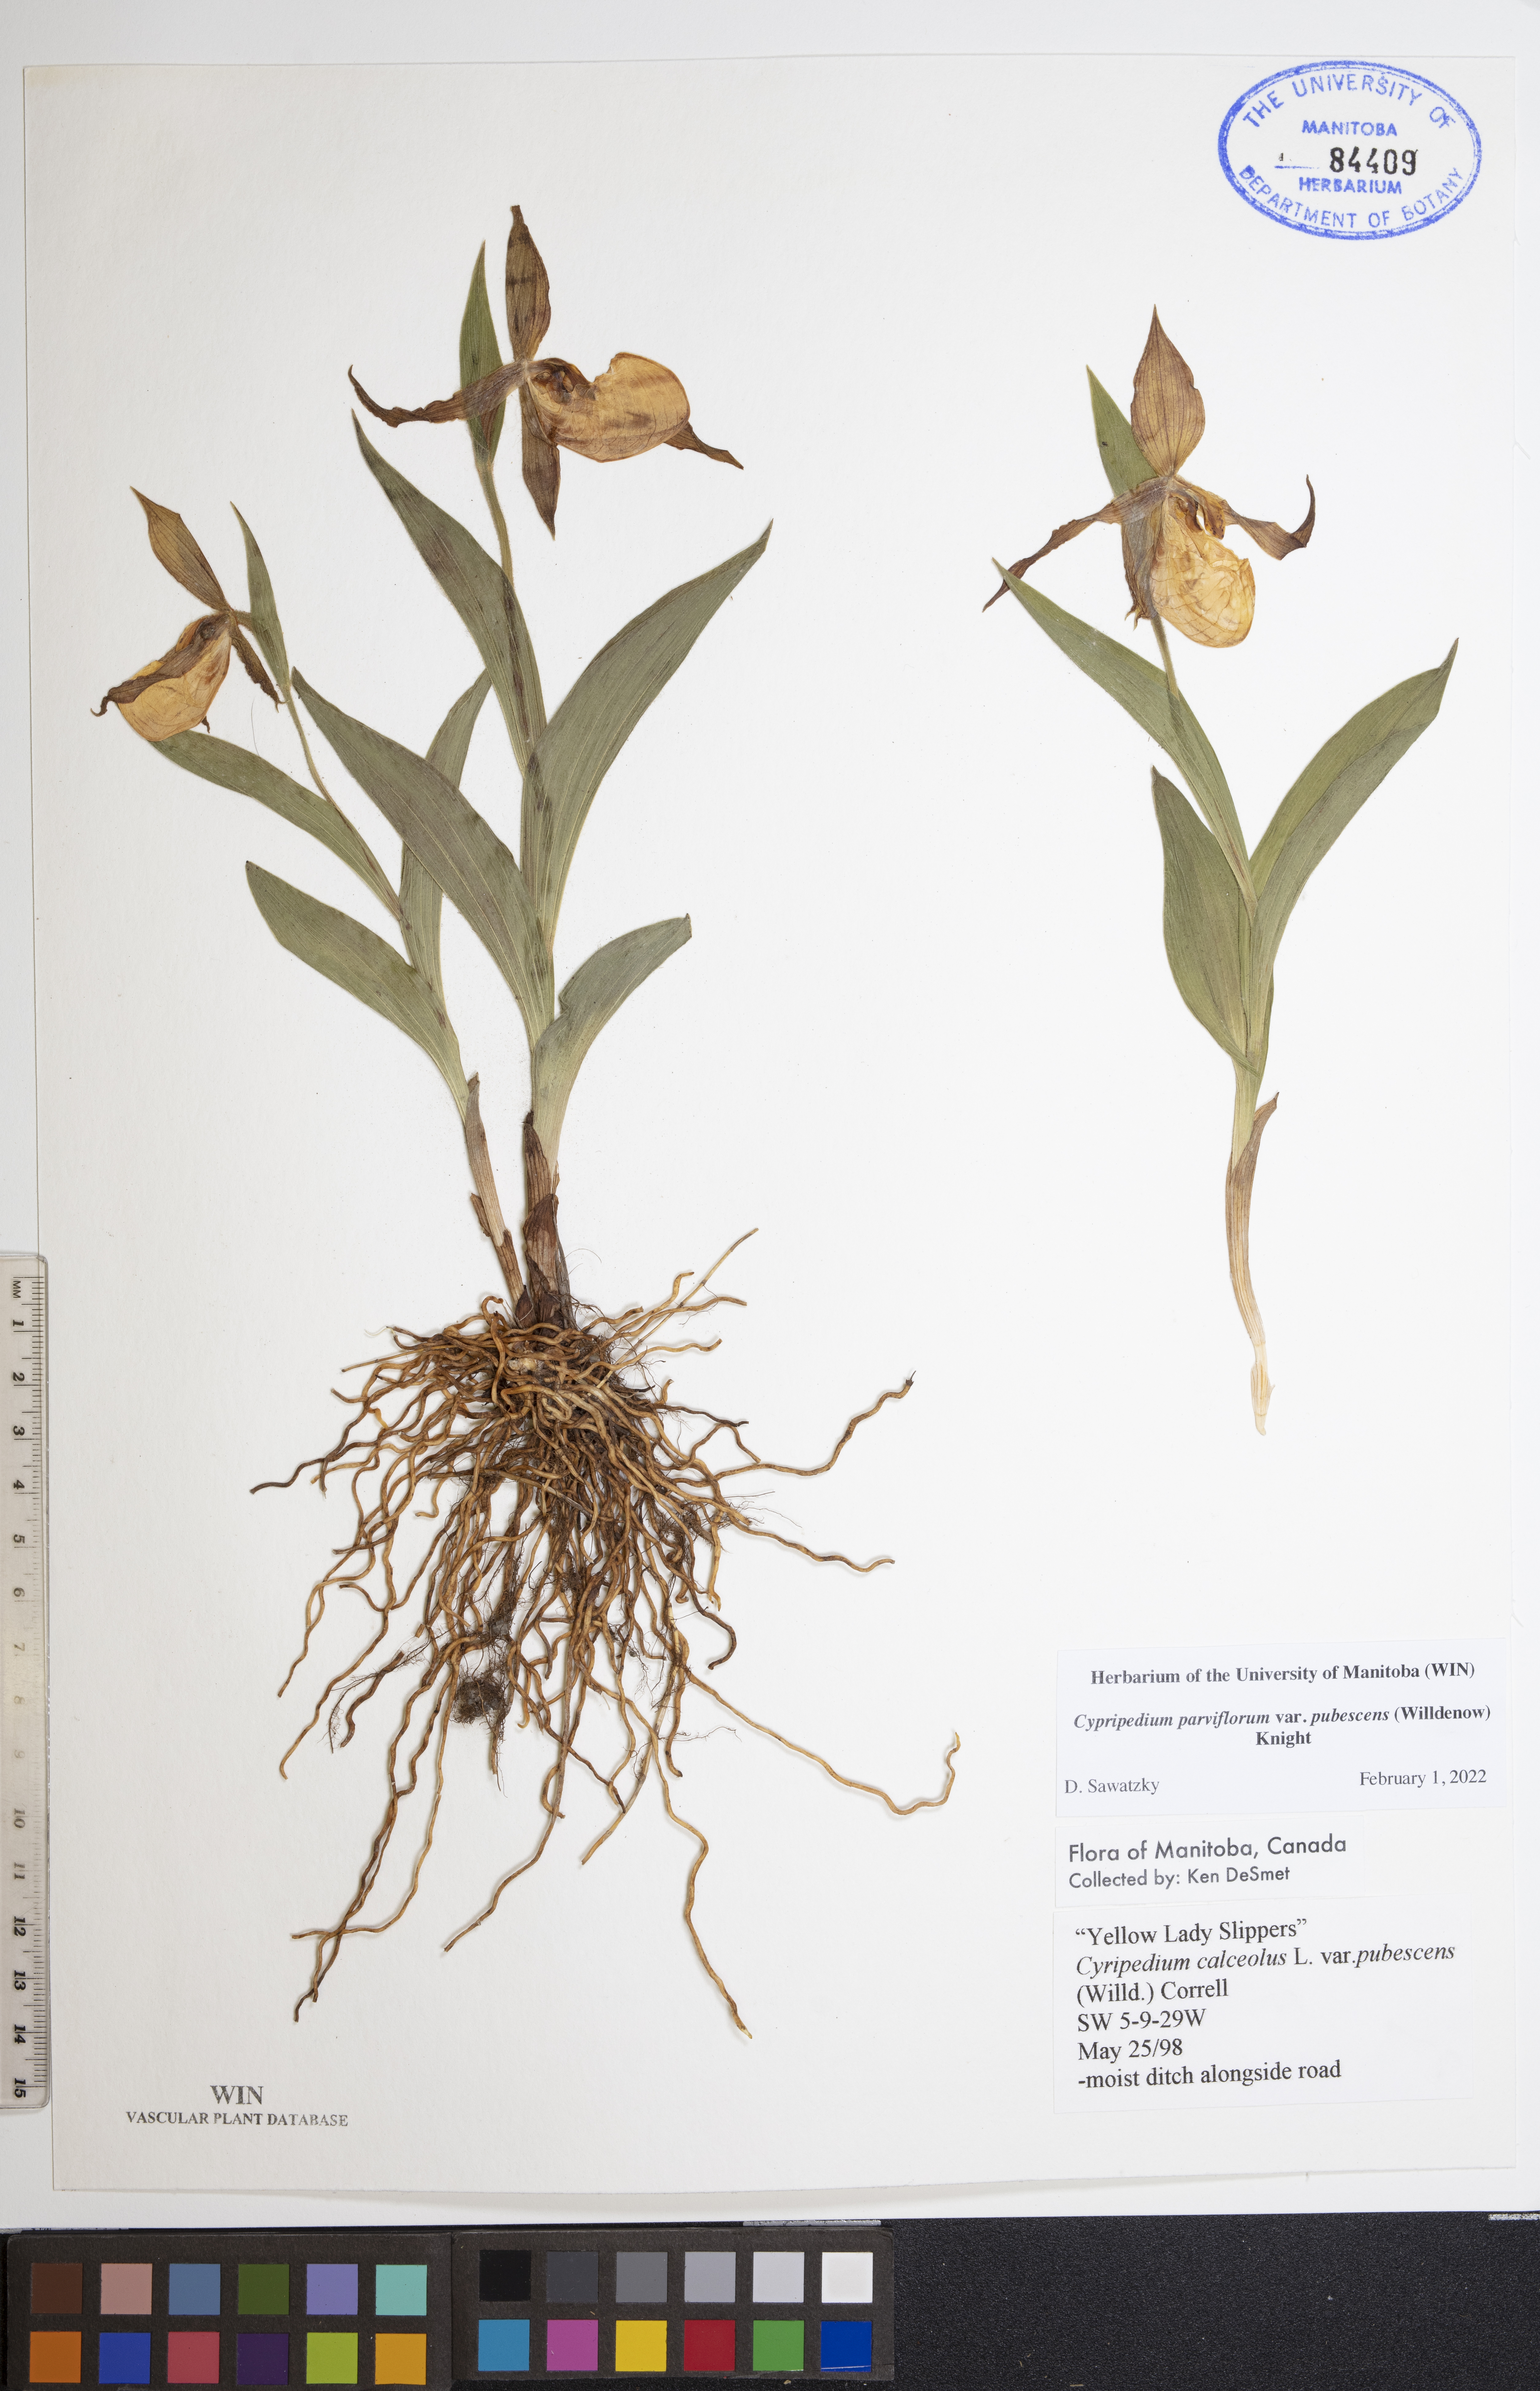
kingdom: Plantae
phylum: Tracheophyta
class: Liliopsida
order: Asparagales
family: Orchidaceae
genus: Cypripedium
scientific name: Cypripedium parviflorum
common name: American yellow lady's-slipper
